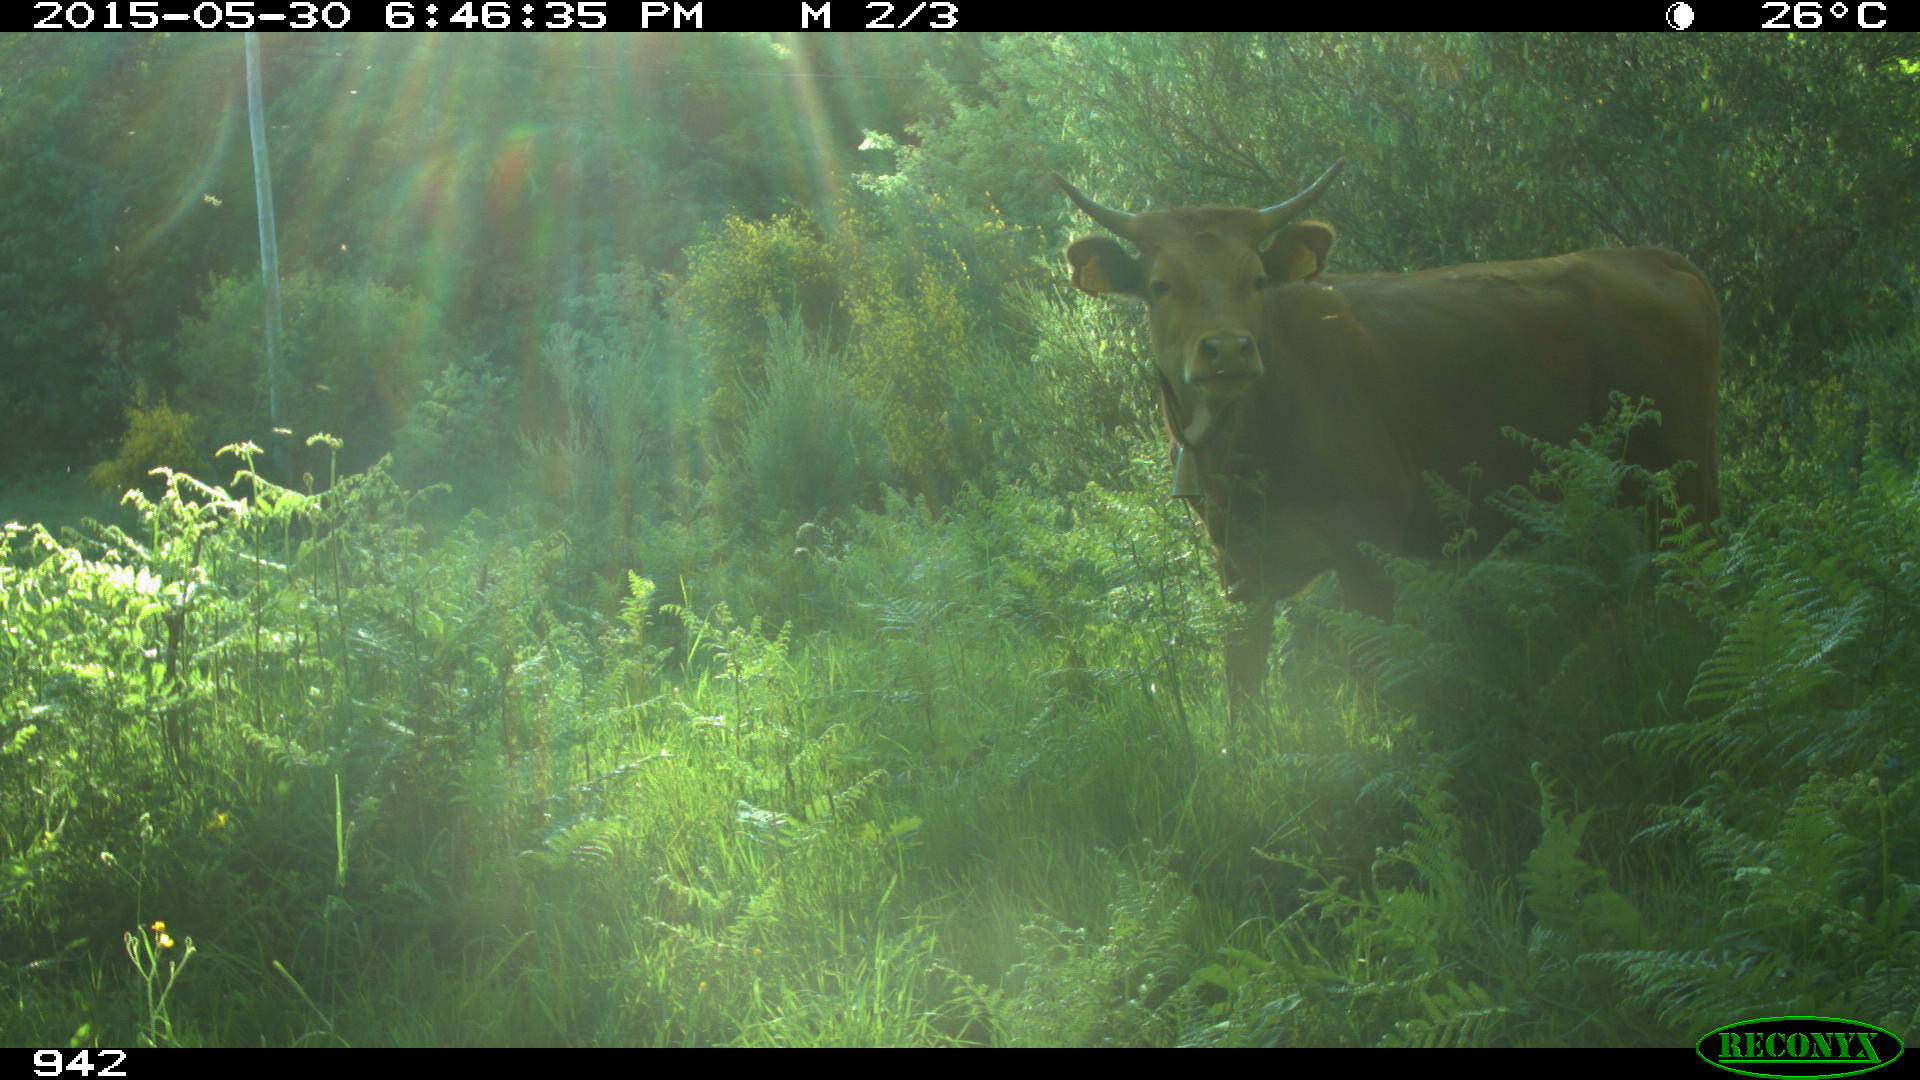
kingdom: Animalia
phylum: Chordata
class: Mammalia
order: Artiodactyla
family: Bovidae
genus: Bos
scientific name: Bos taurus
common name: Domesticated cattle
